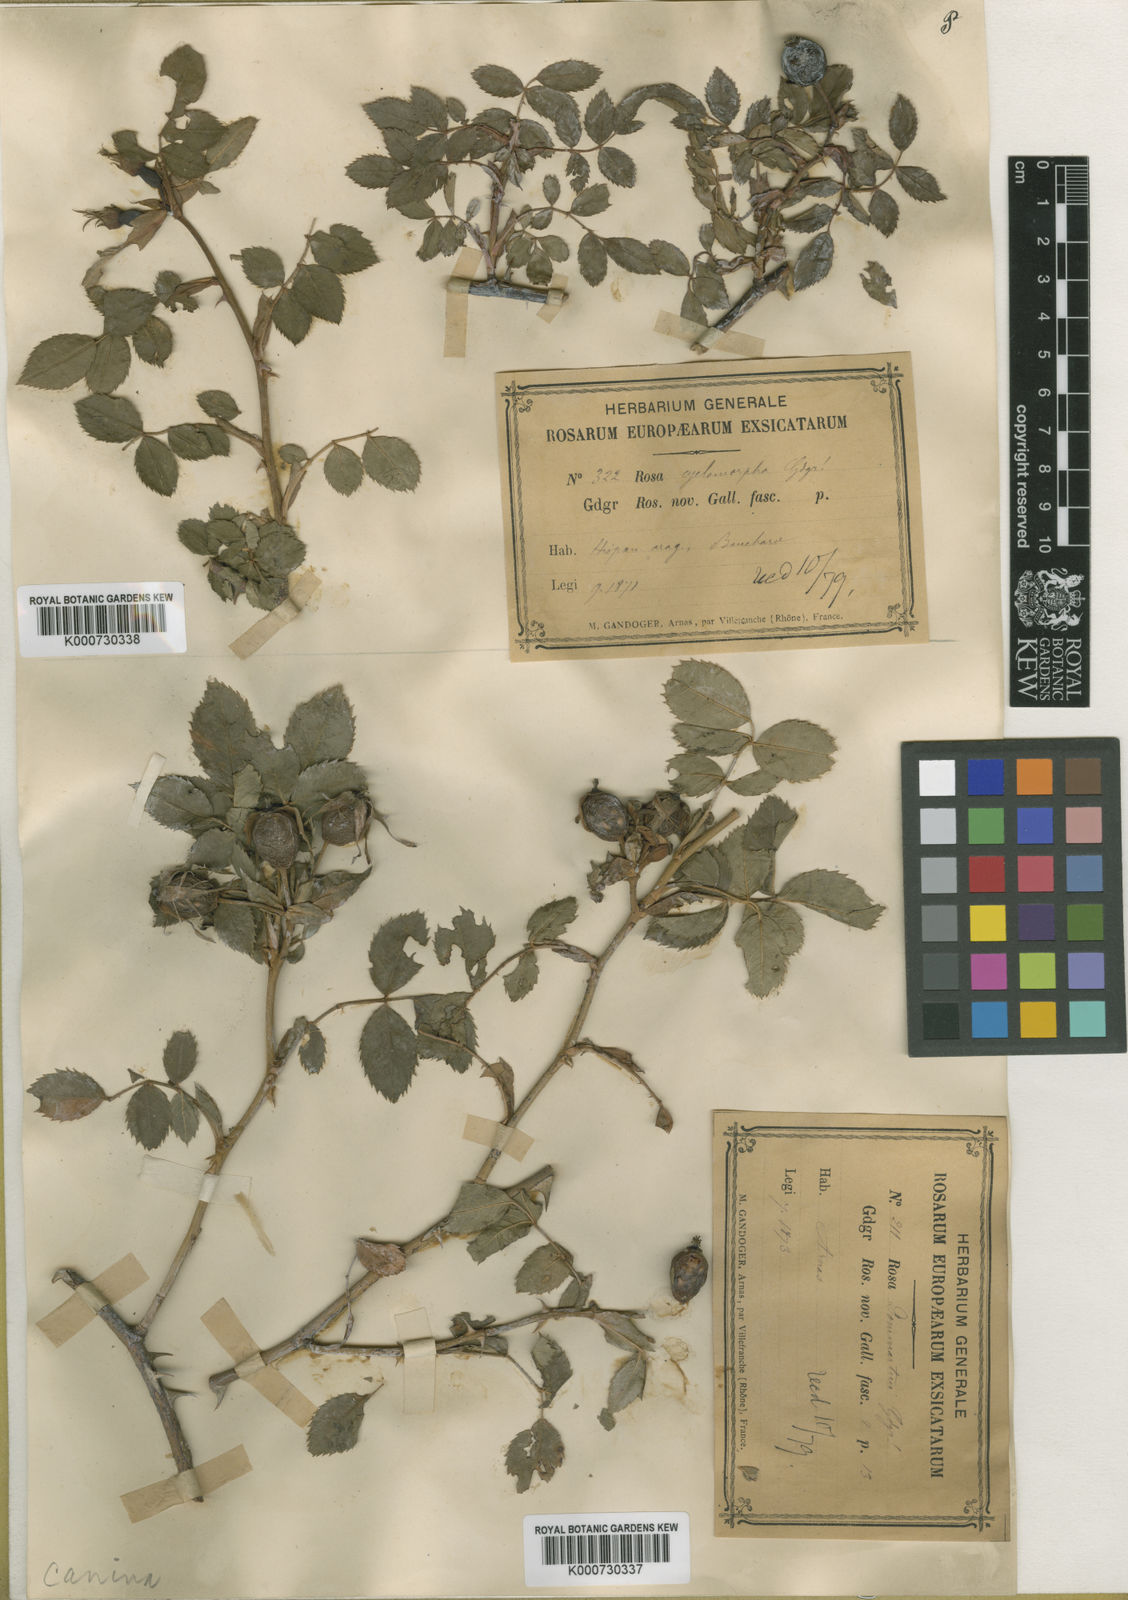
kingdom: Plantae
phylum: Tracheophyta
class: Magnoliopsida
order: Rosales
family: Rosaceae
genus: Rosa
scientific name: Rosa canina
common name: Dog rose
